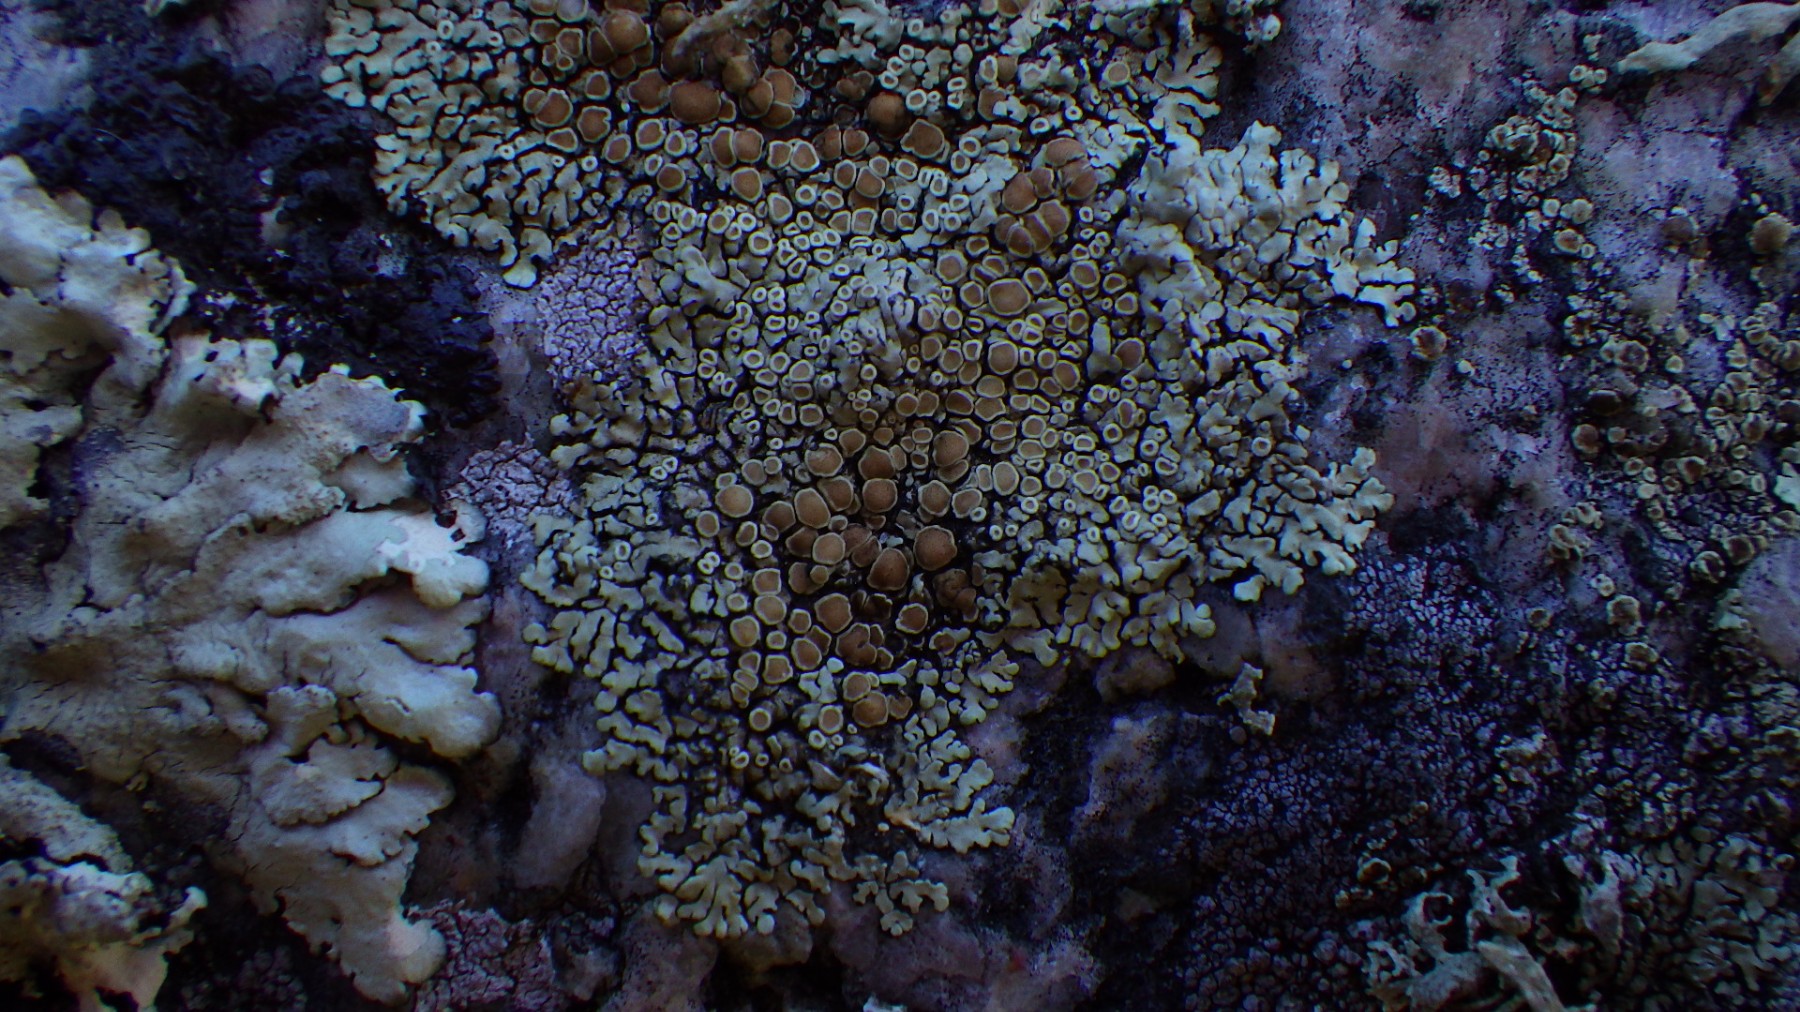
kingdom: Fungi
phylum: Ascomycota
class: Lecanoromycetes
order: Lecanorales
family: Lecanoraceae
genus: Protoparmeliopsis
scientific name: Protoparmeliopsis muralis
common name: randfliget kantskivelav
